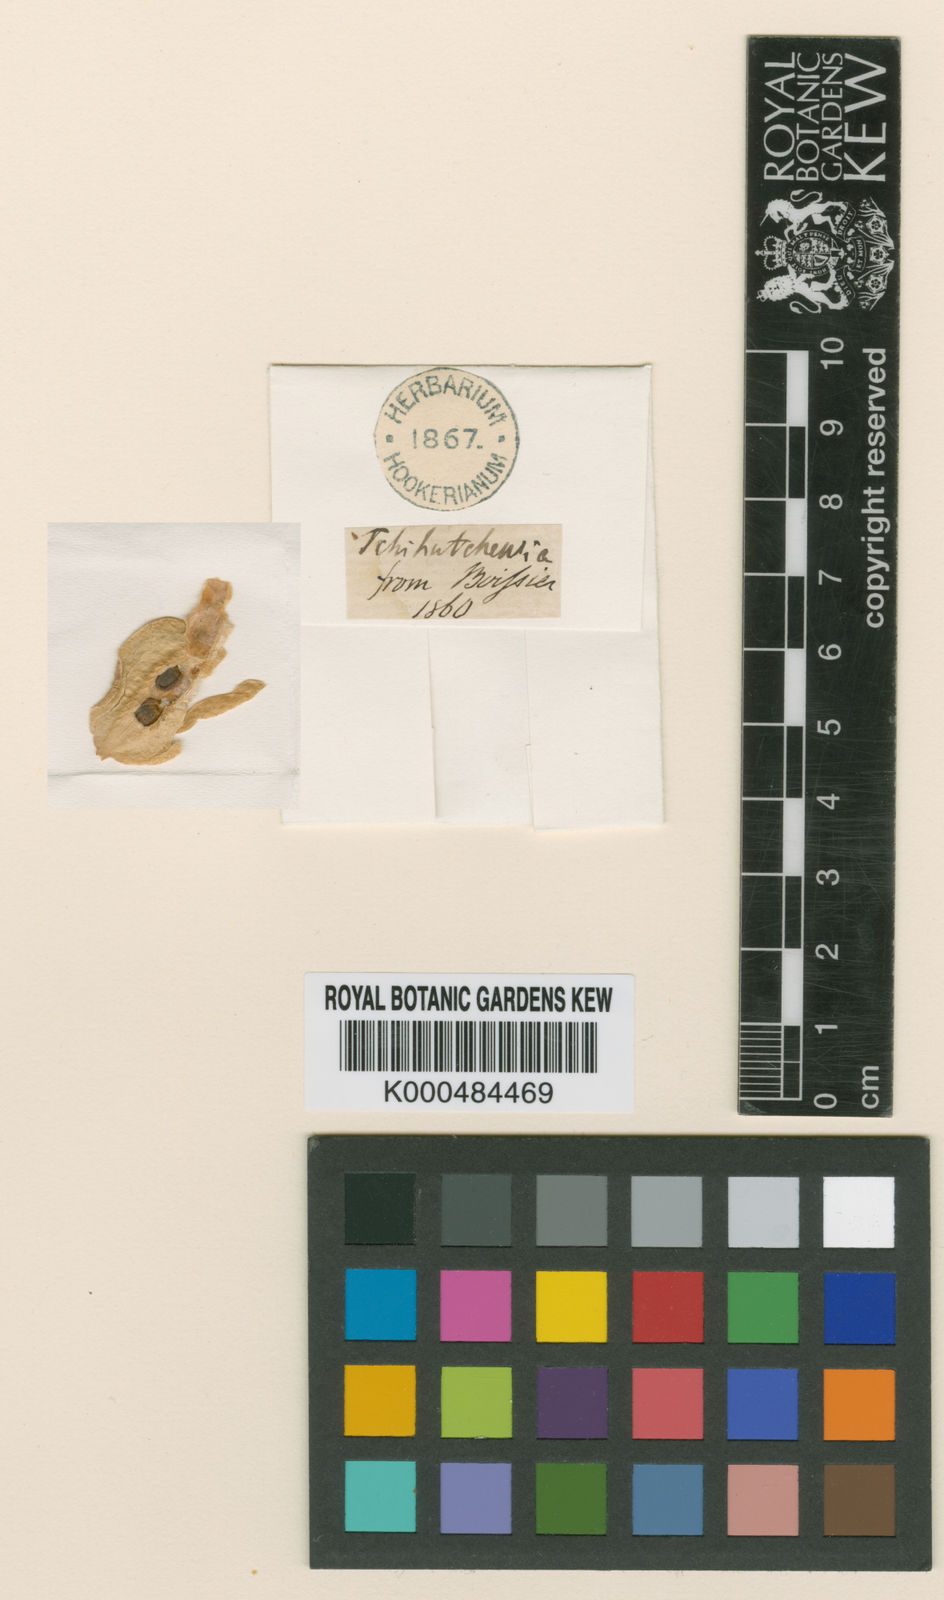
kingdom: Plantae
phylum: Tracheophyta
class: Magnoliopsida
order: Brassicales
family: Brassicaceae
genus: Hesperis
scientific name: Hesperis isatidea
